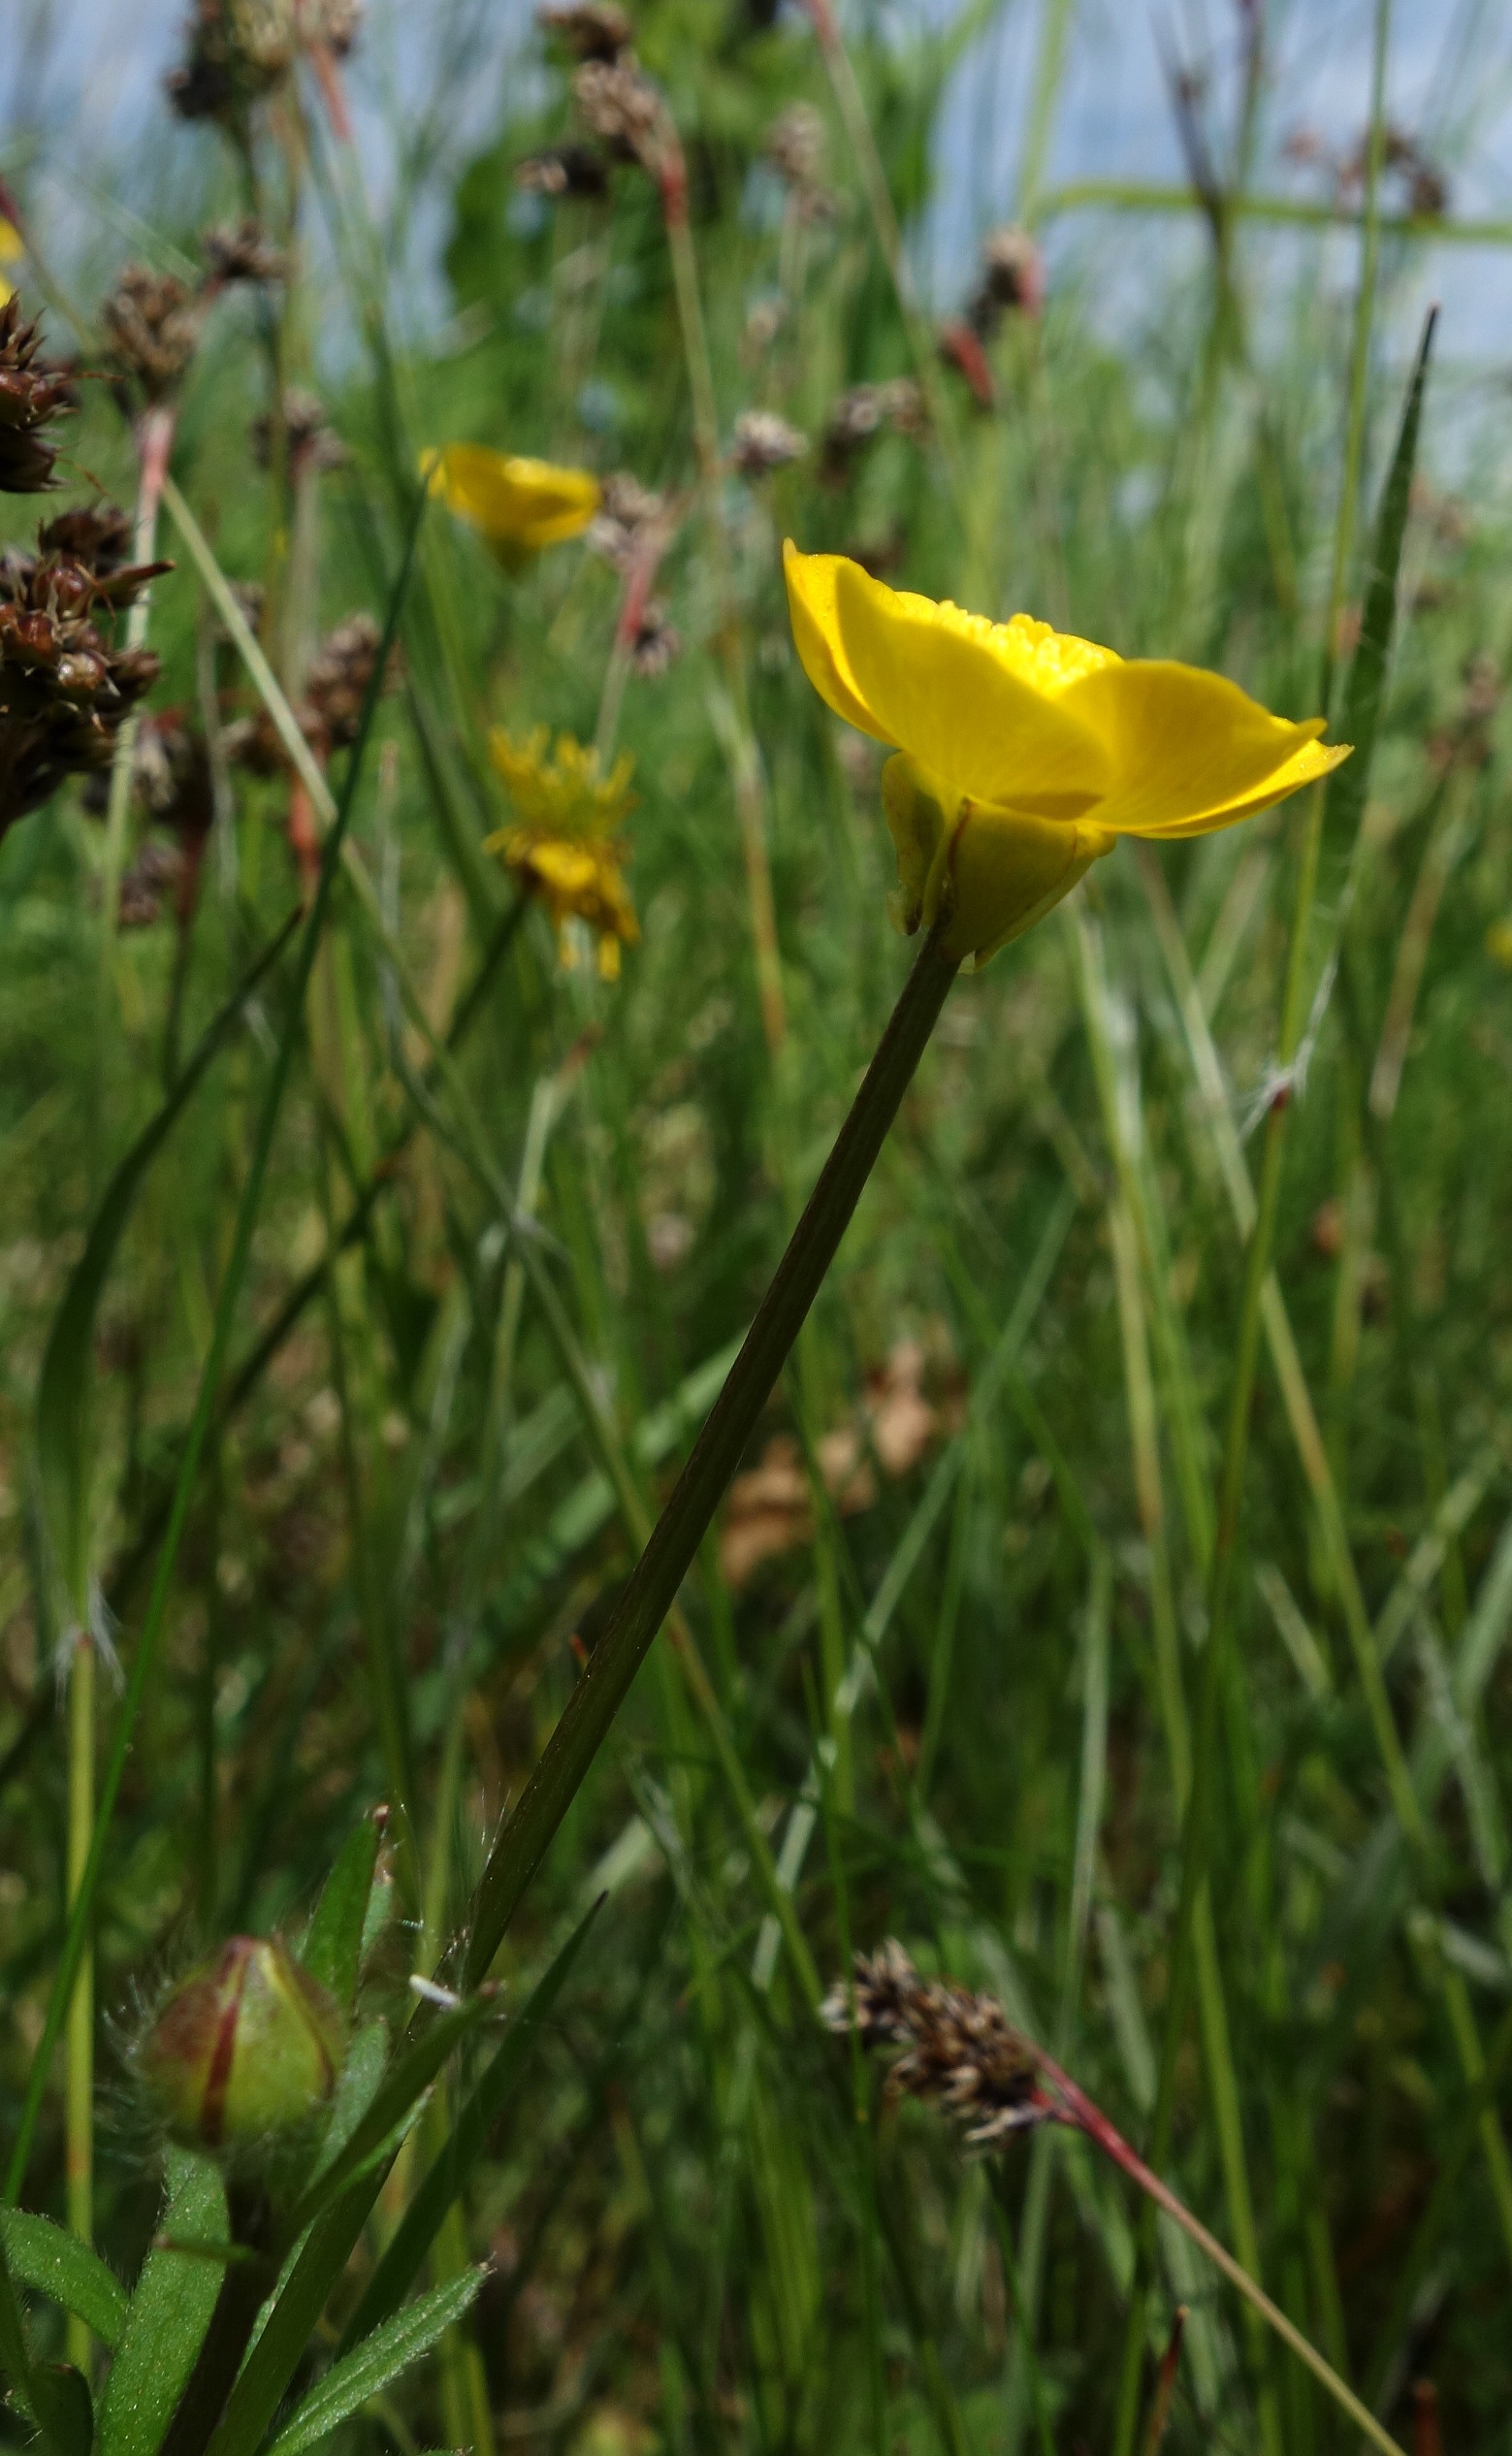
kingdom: Plantae
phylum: Tracheophyta
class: Magnoliopsida
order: Ranunculales
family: Ranunculaceae
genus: Ranunculus
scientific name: Ranunculus bulbosus
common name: Knold-ranunkel
